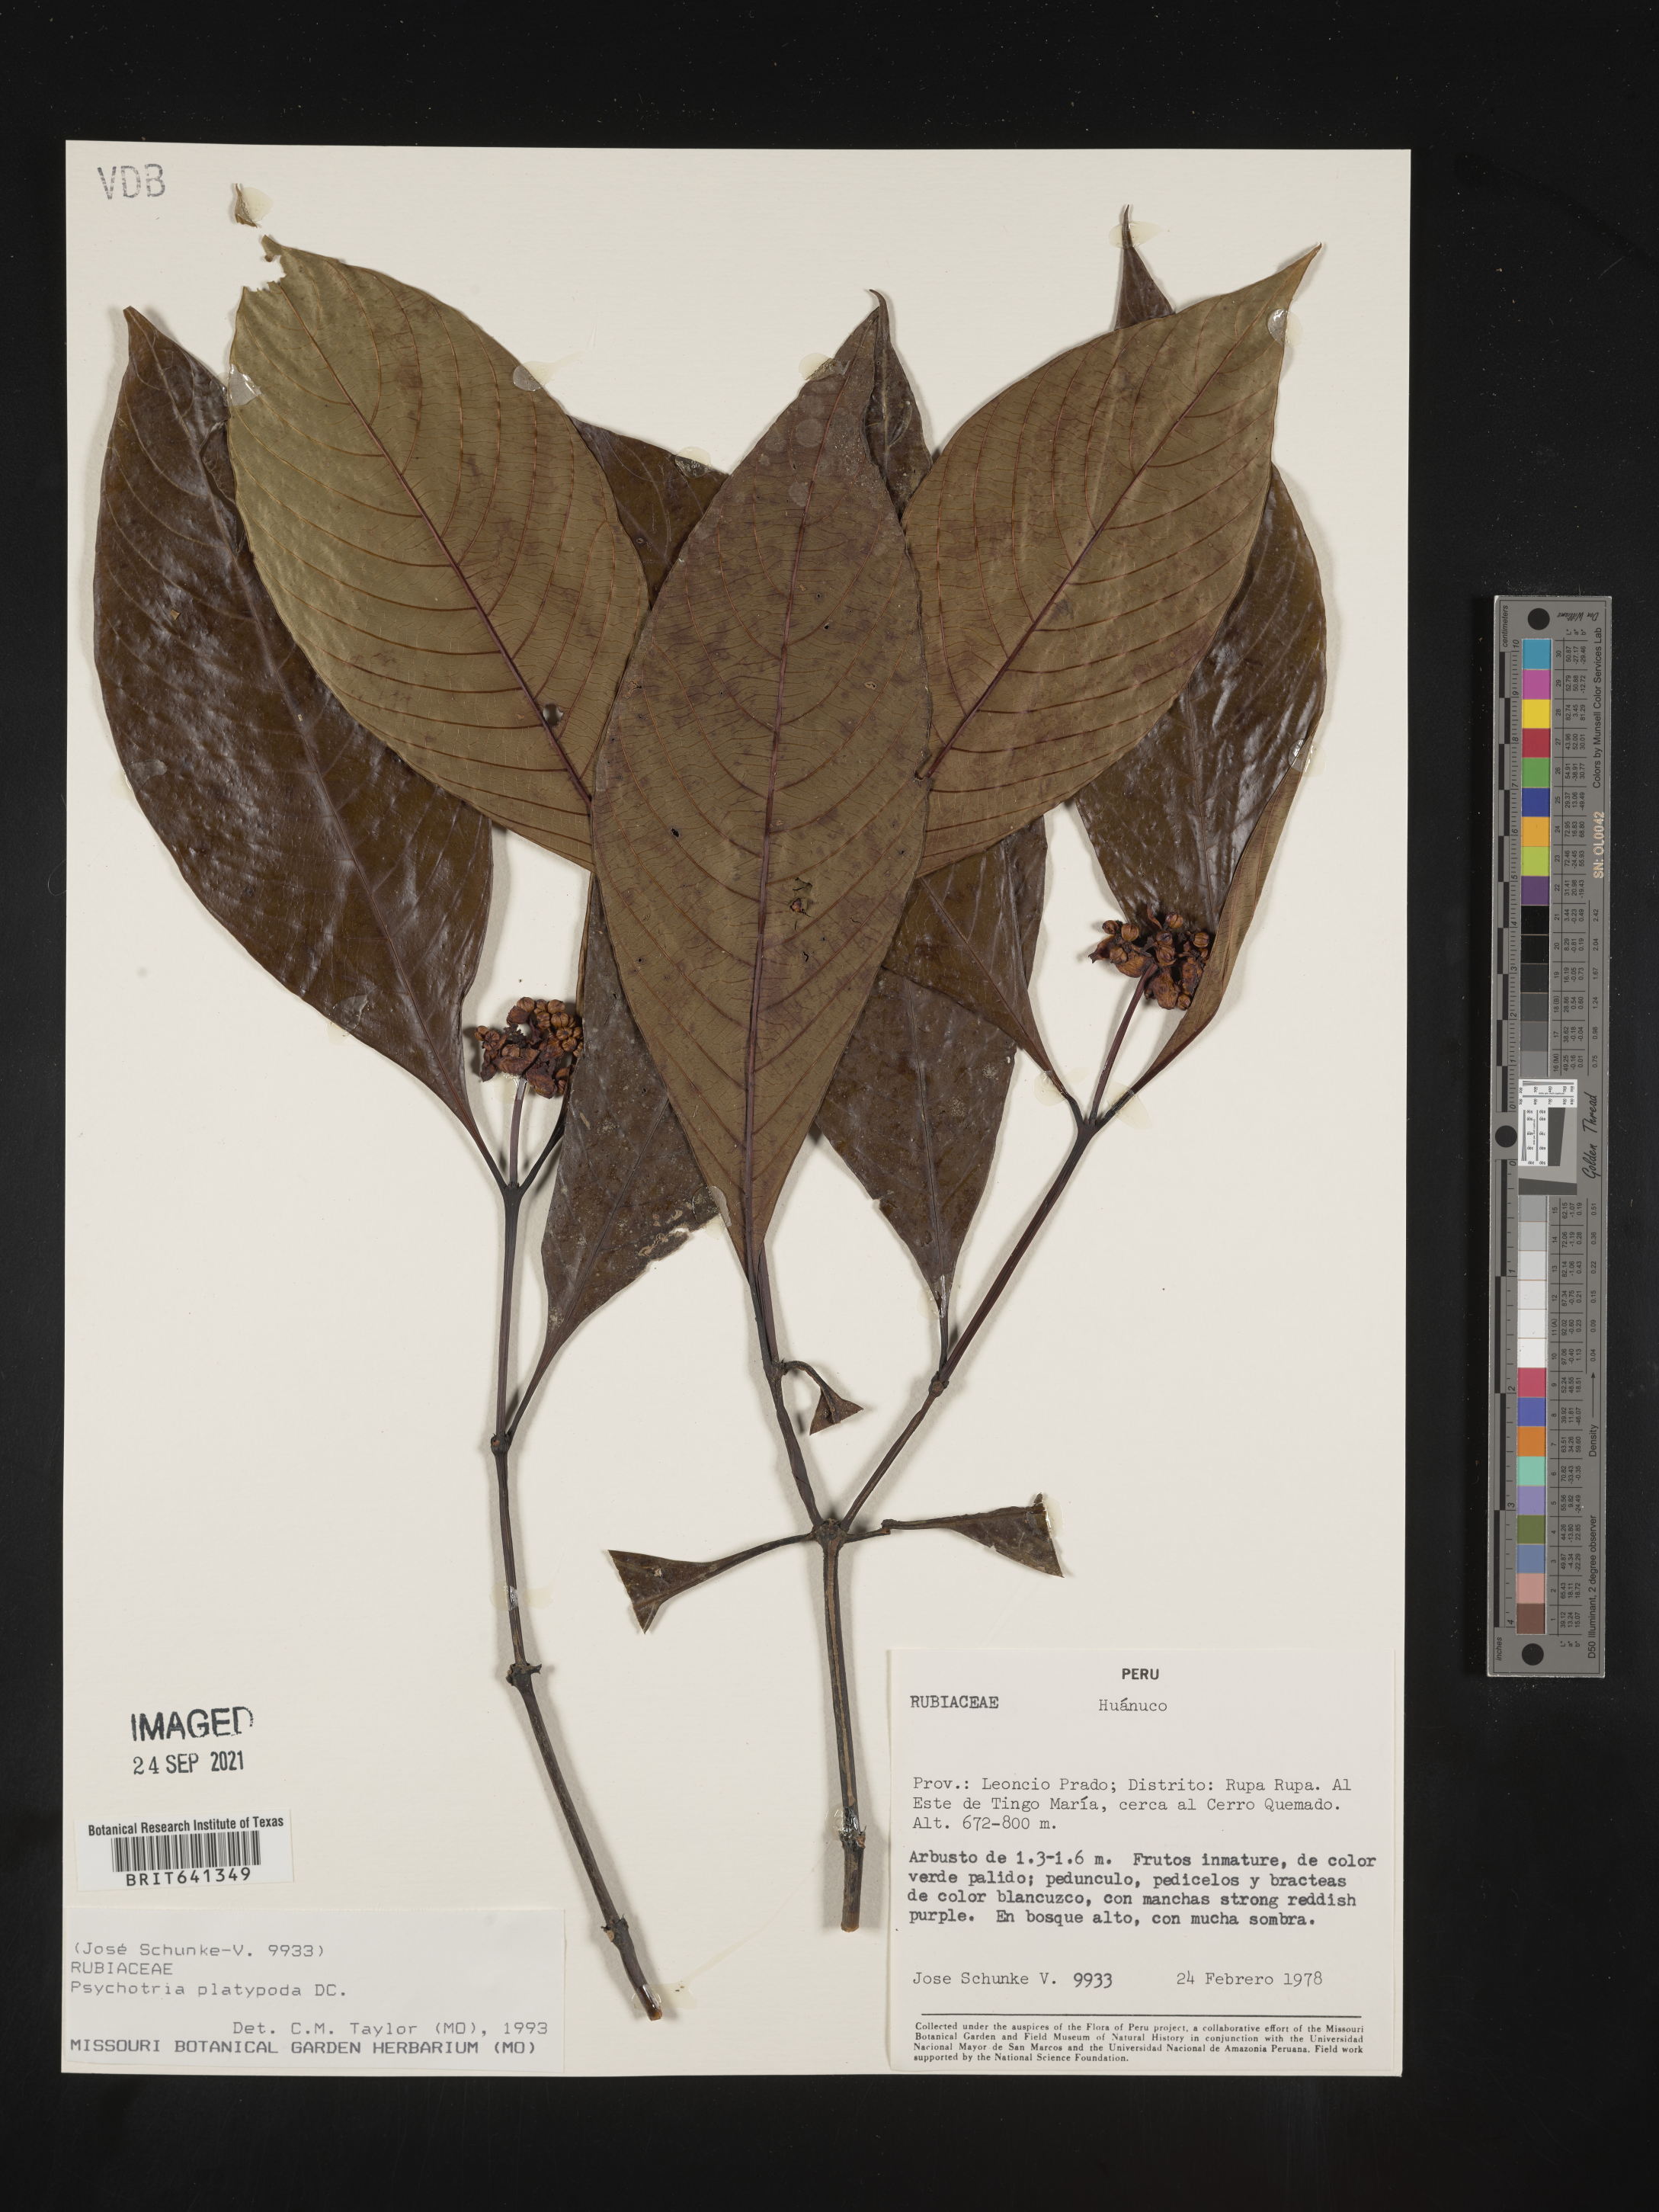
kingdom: Plantae
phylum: Tracheophyta
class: Magnoliopsida
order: Gentianales
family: Rubiaceae
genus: Psychotria
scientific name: Psychotria
